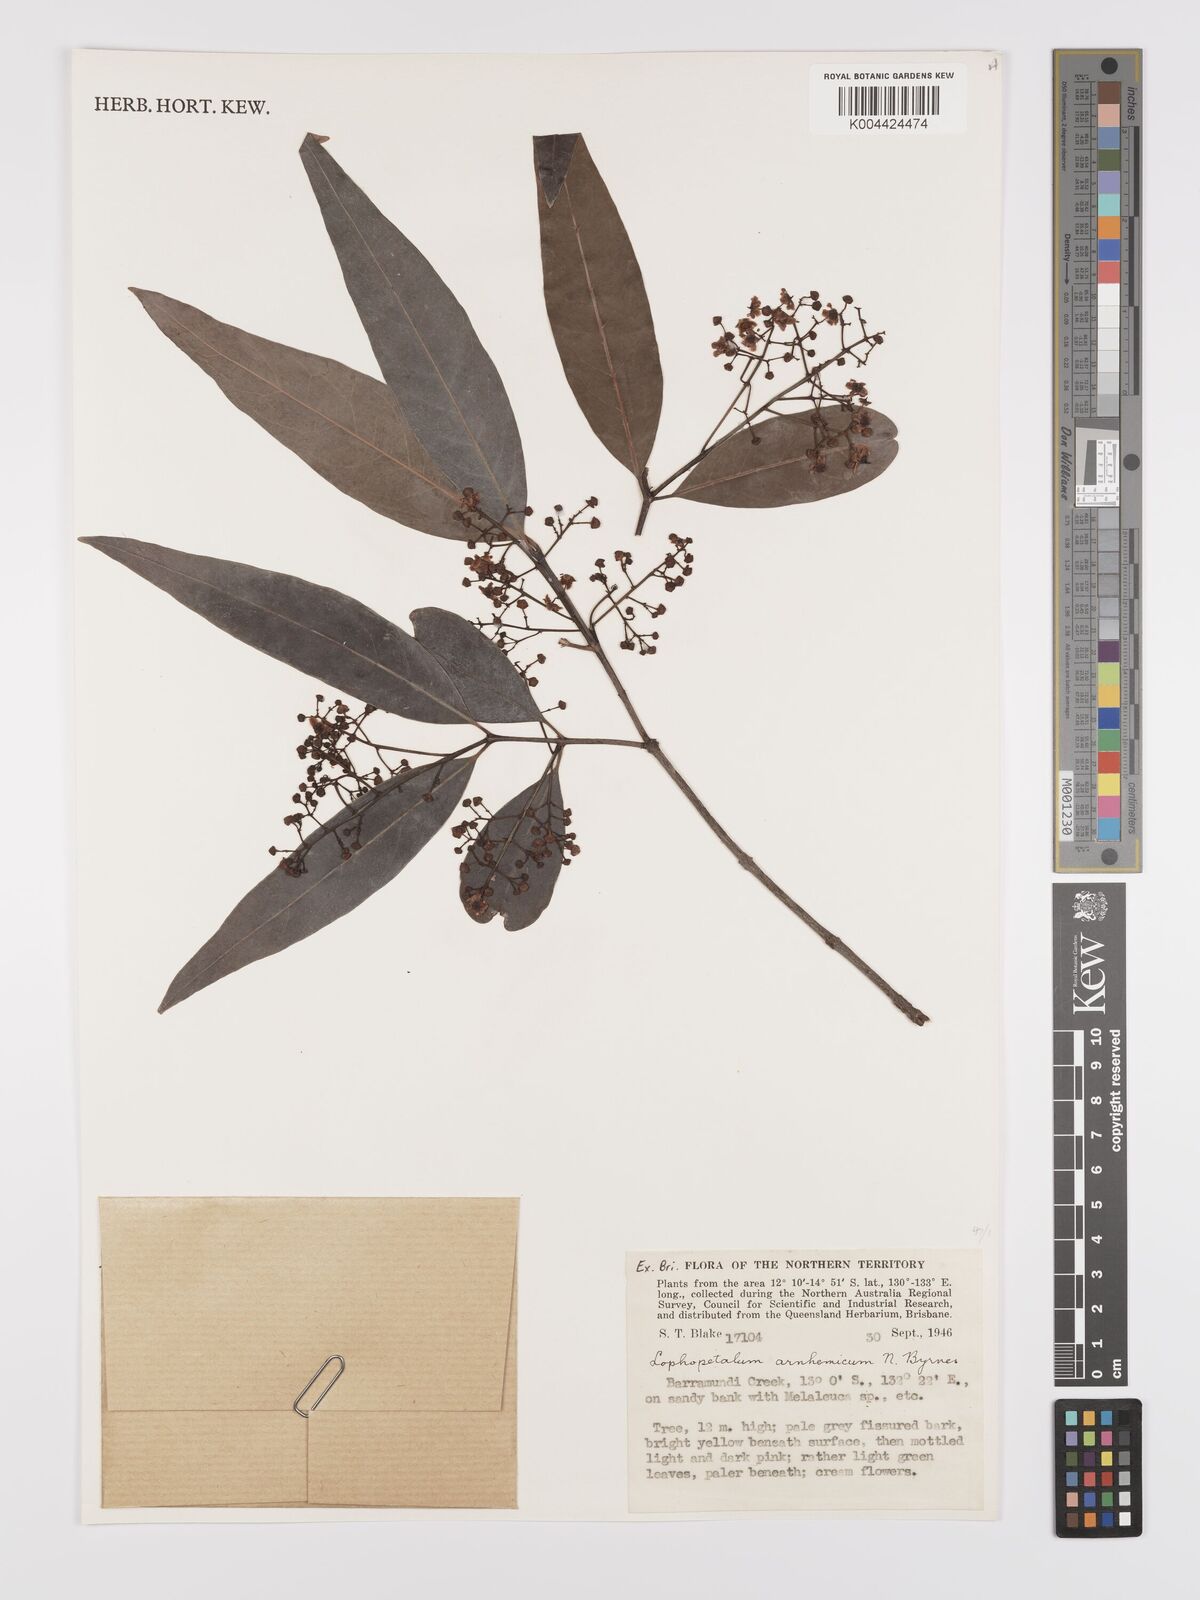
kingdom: Plantae
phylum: Tracheophyta
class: Magnoliopsida
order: Celastrales
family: Celastraceae
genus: Lophopetalum
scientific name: Lophopetalum arnhemicum
